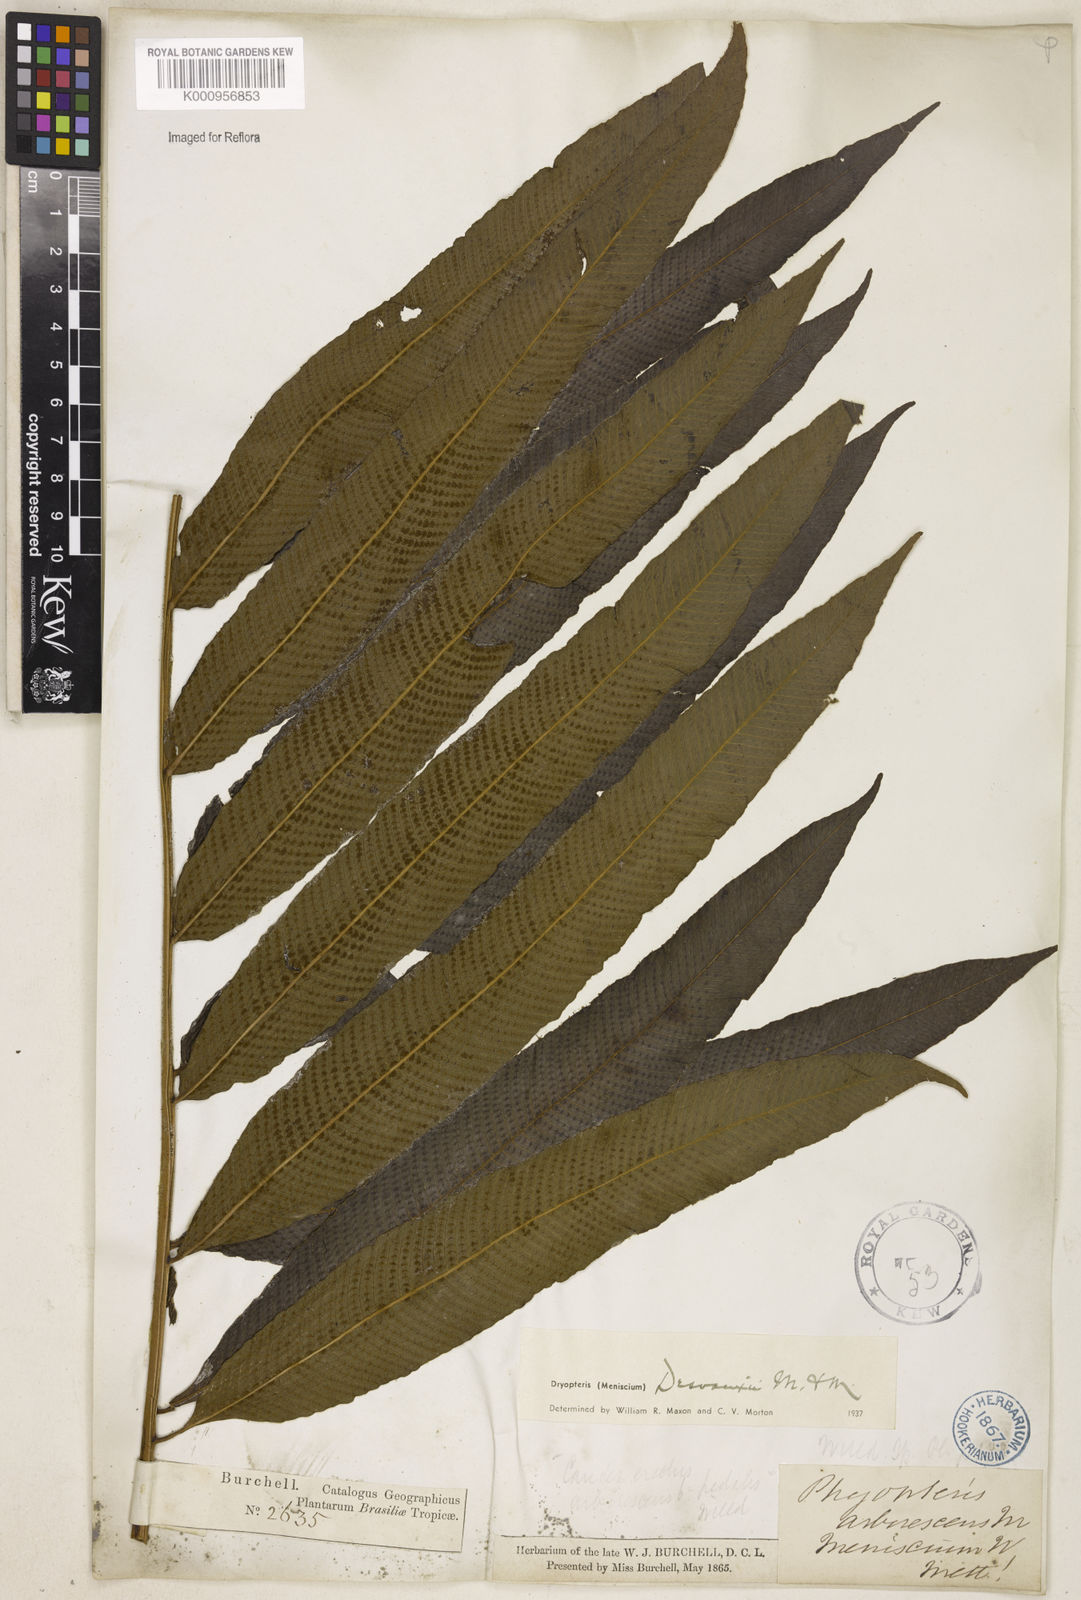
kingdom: Plantae
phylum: Tracheophyta
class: Polypodiopsida
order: Polypodiales
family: Thelypteridaceae
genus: Meniscium
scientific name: Meniscium arborescens
